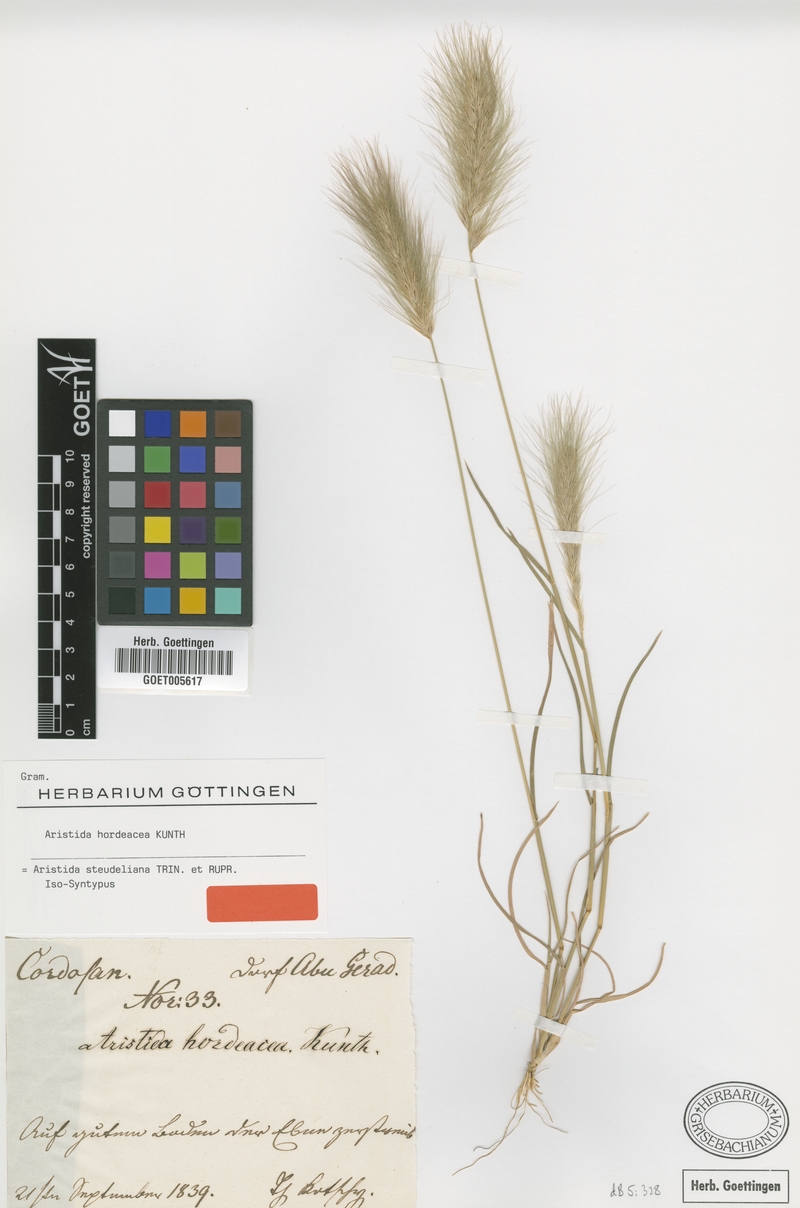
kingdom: Plantae
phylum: Tracheophyta
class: Liliopsida
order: Poales
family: Poaceae
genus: Aristida
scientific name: Aristida hordeacea
